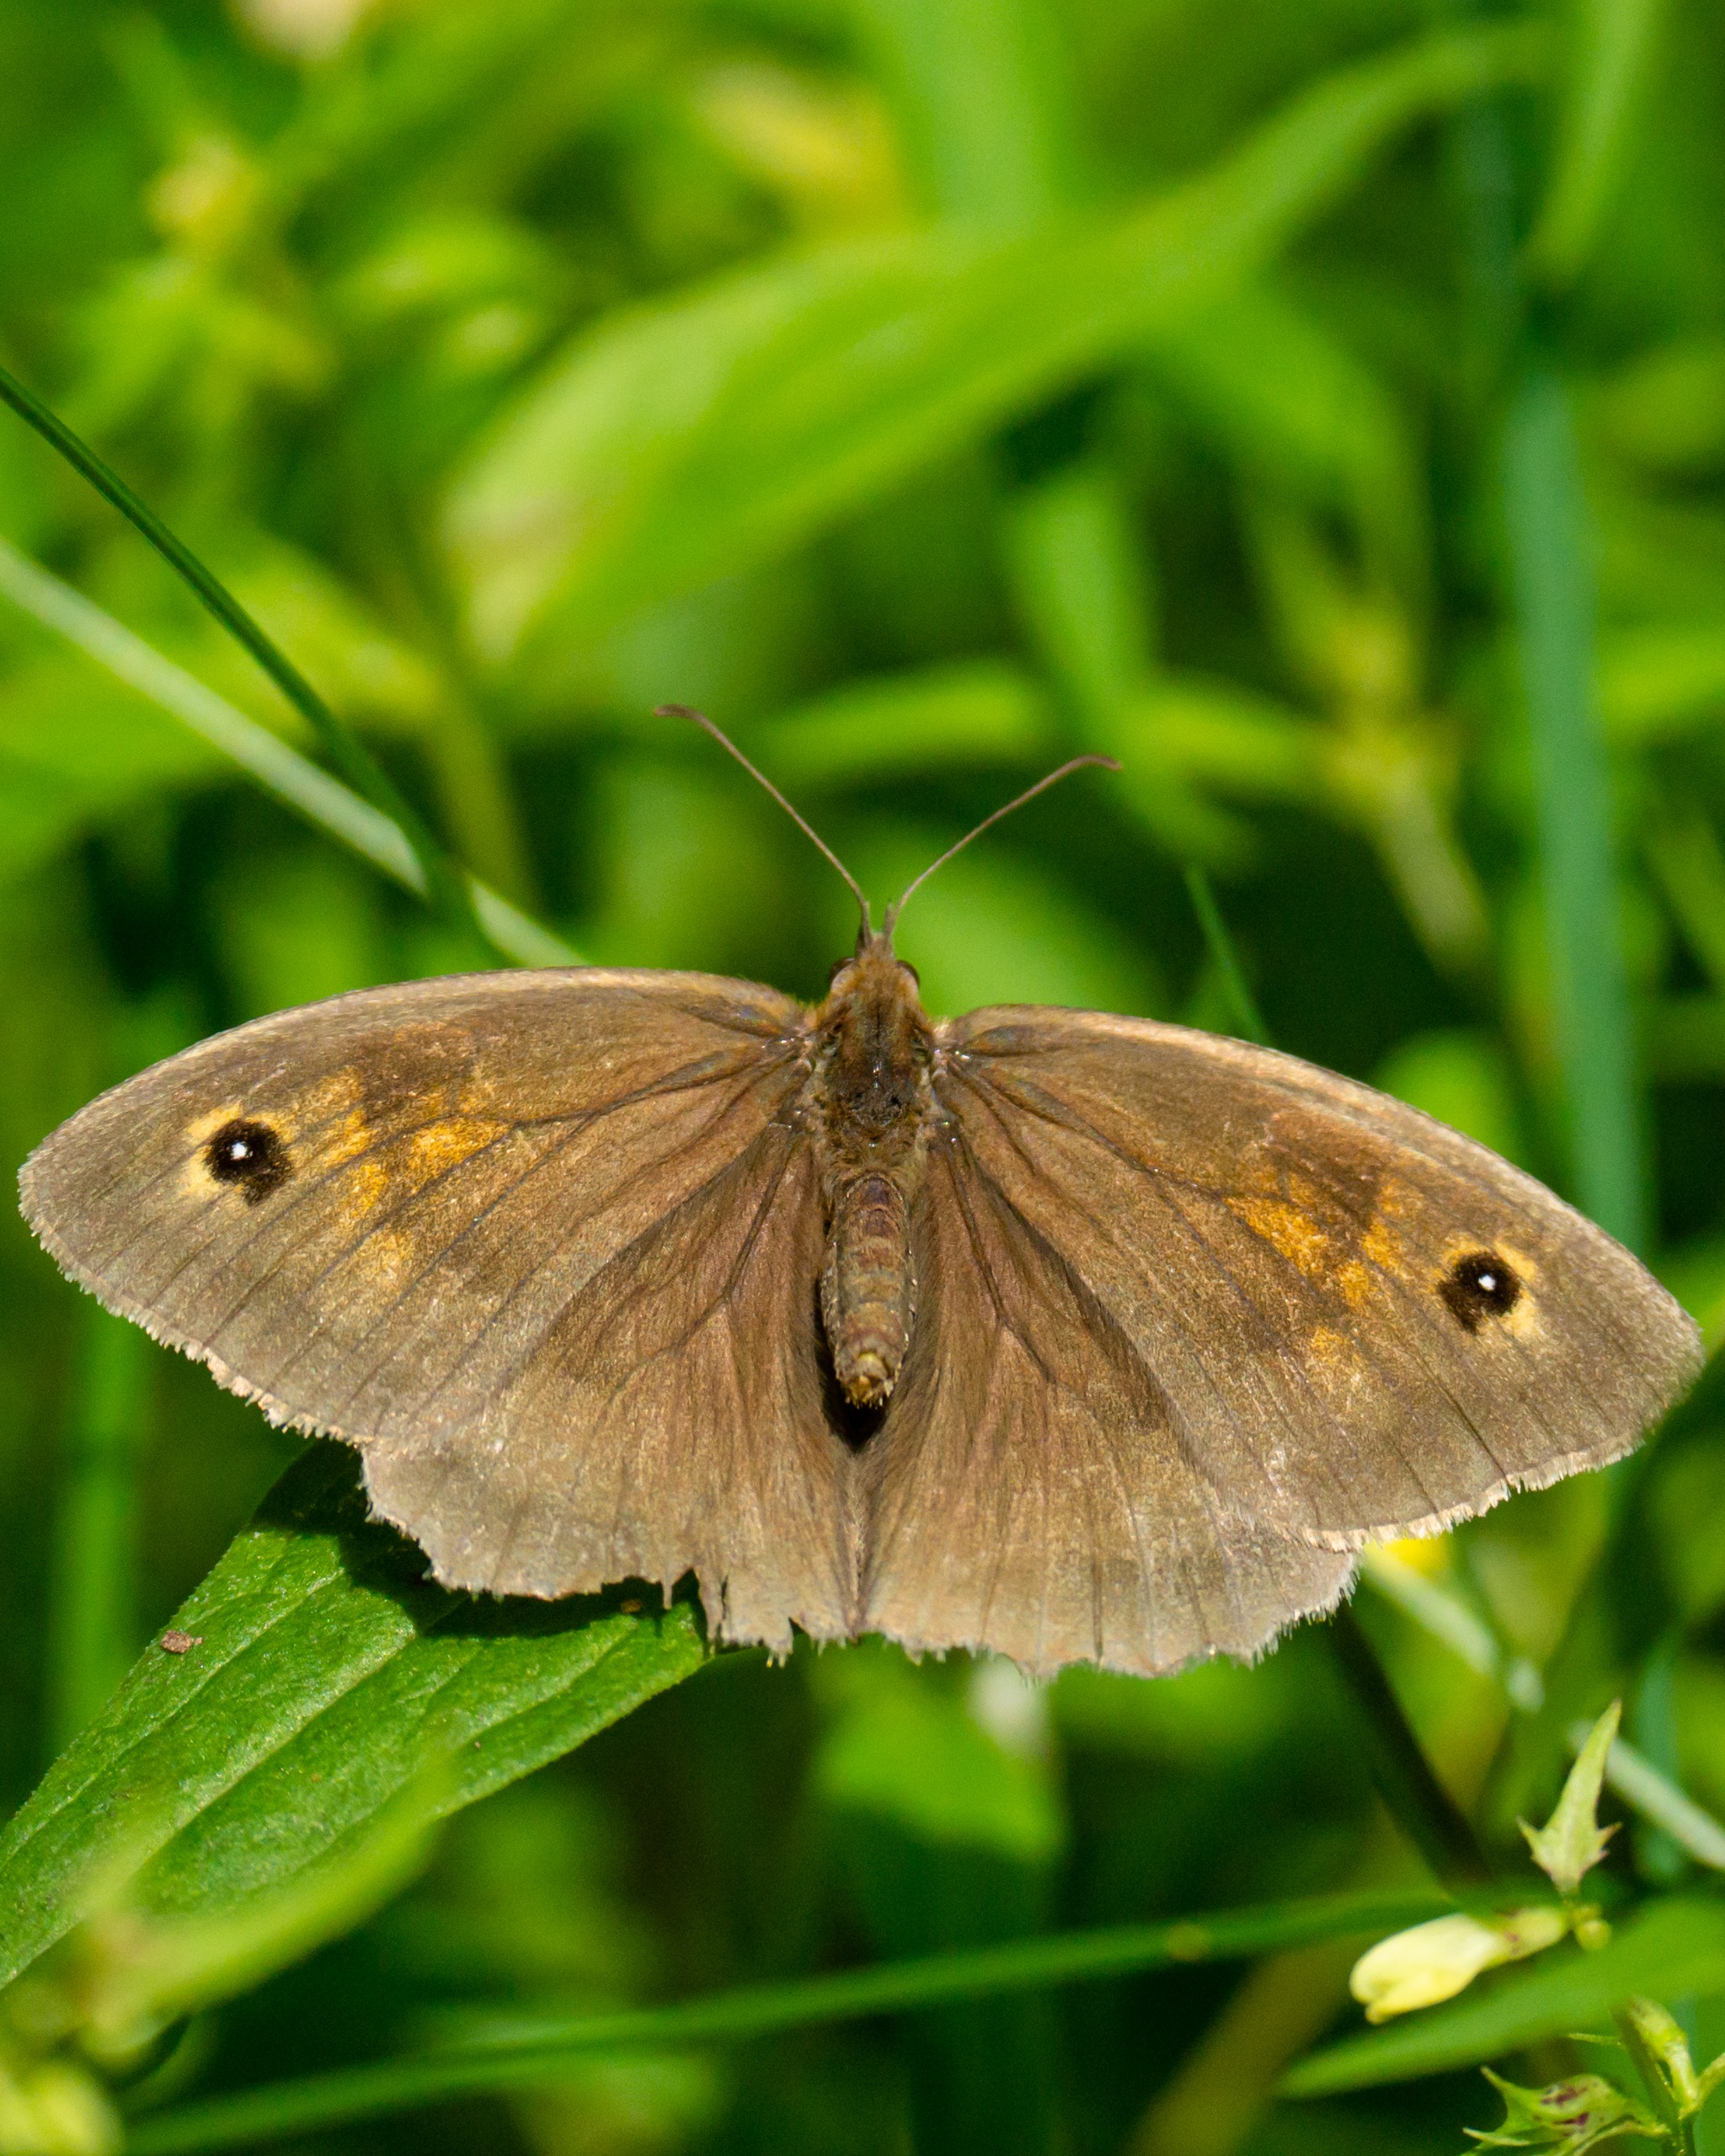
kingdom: Animalia
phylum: Arthropoda
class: Insecta
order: Lepidoptera
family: Nymphalidae
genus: Maniola
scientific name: Maniola jurtina
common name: Græsrandøje
